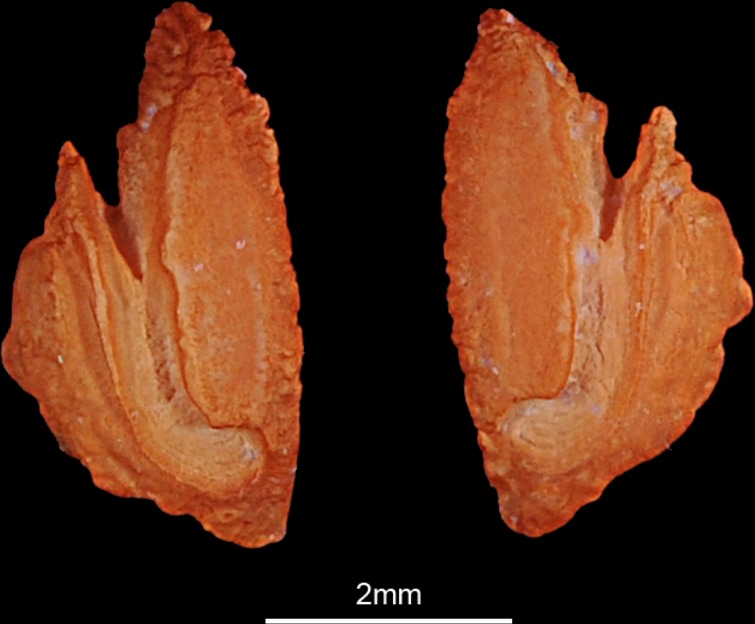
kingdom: Animalia
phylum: Chordata
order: Perciformes
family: Nemipteridae
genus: Scolopsis
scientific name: Scolopsis ghanam
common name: Arabian monocle bream
